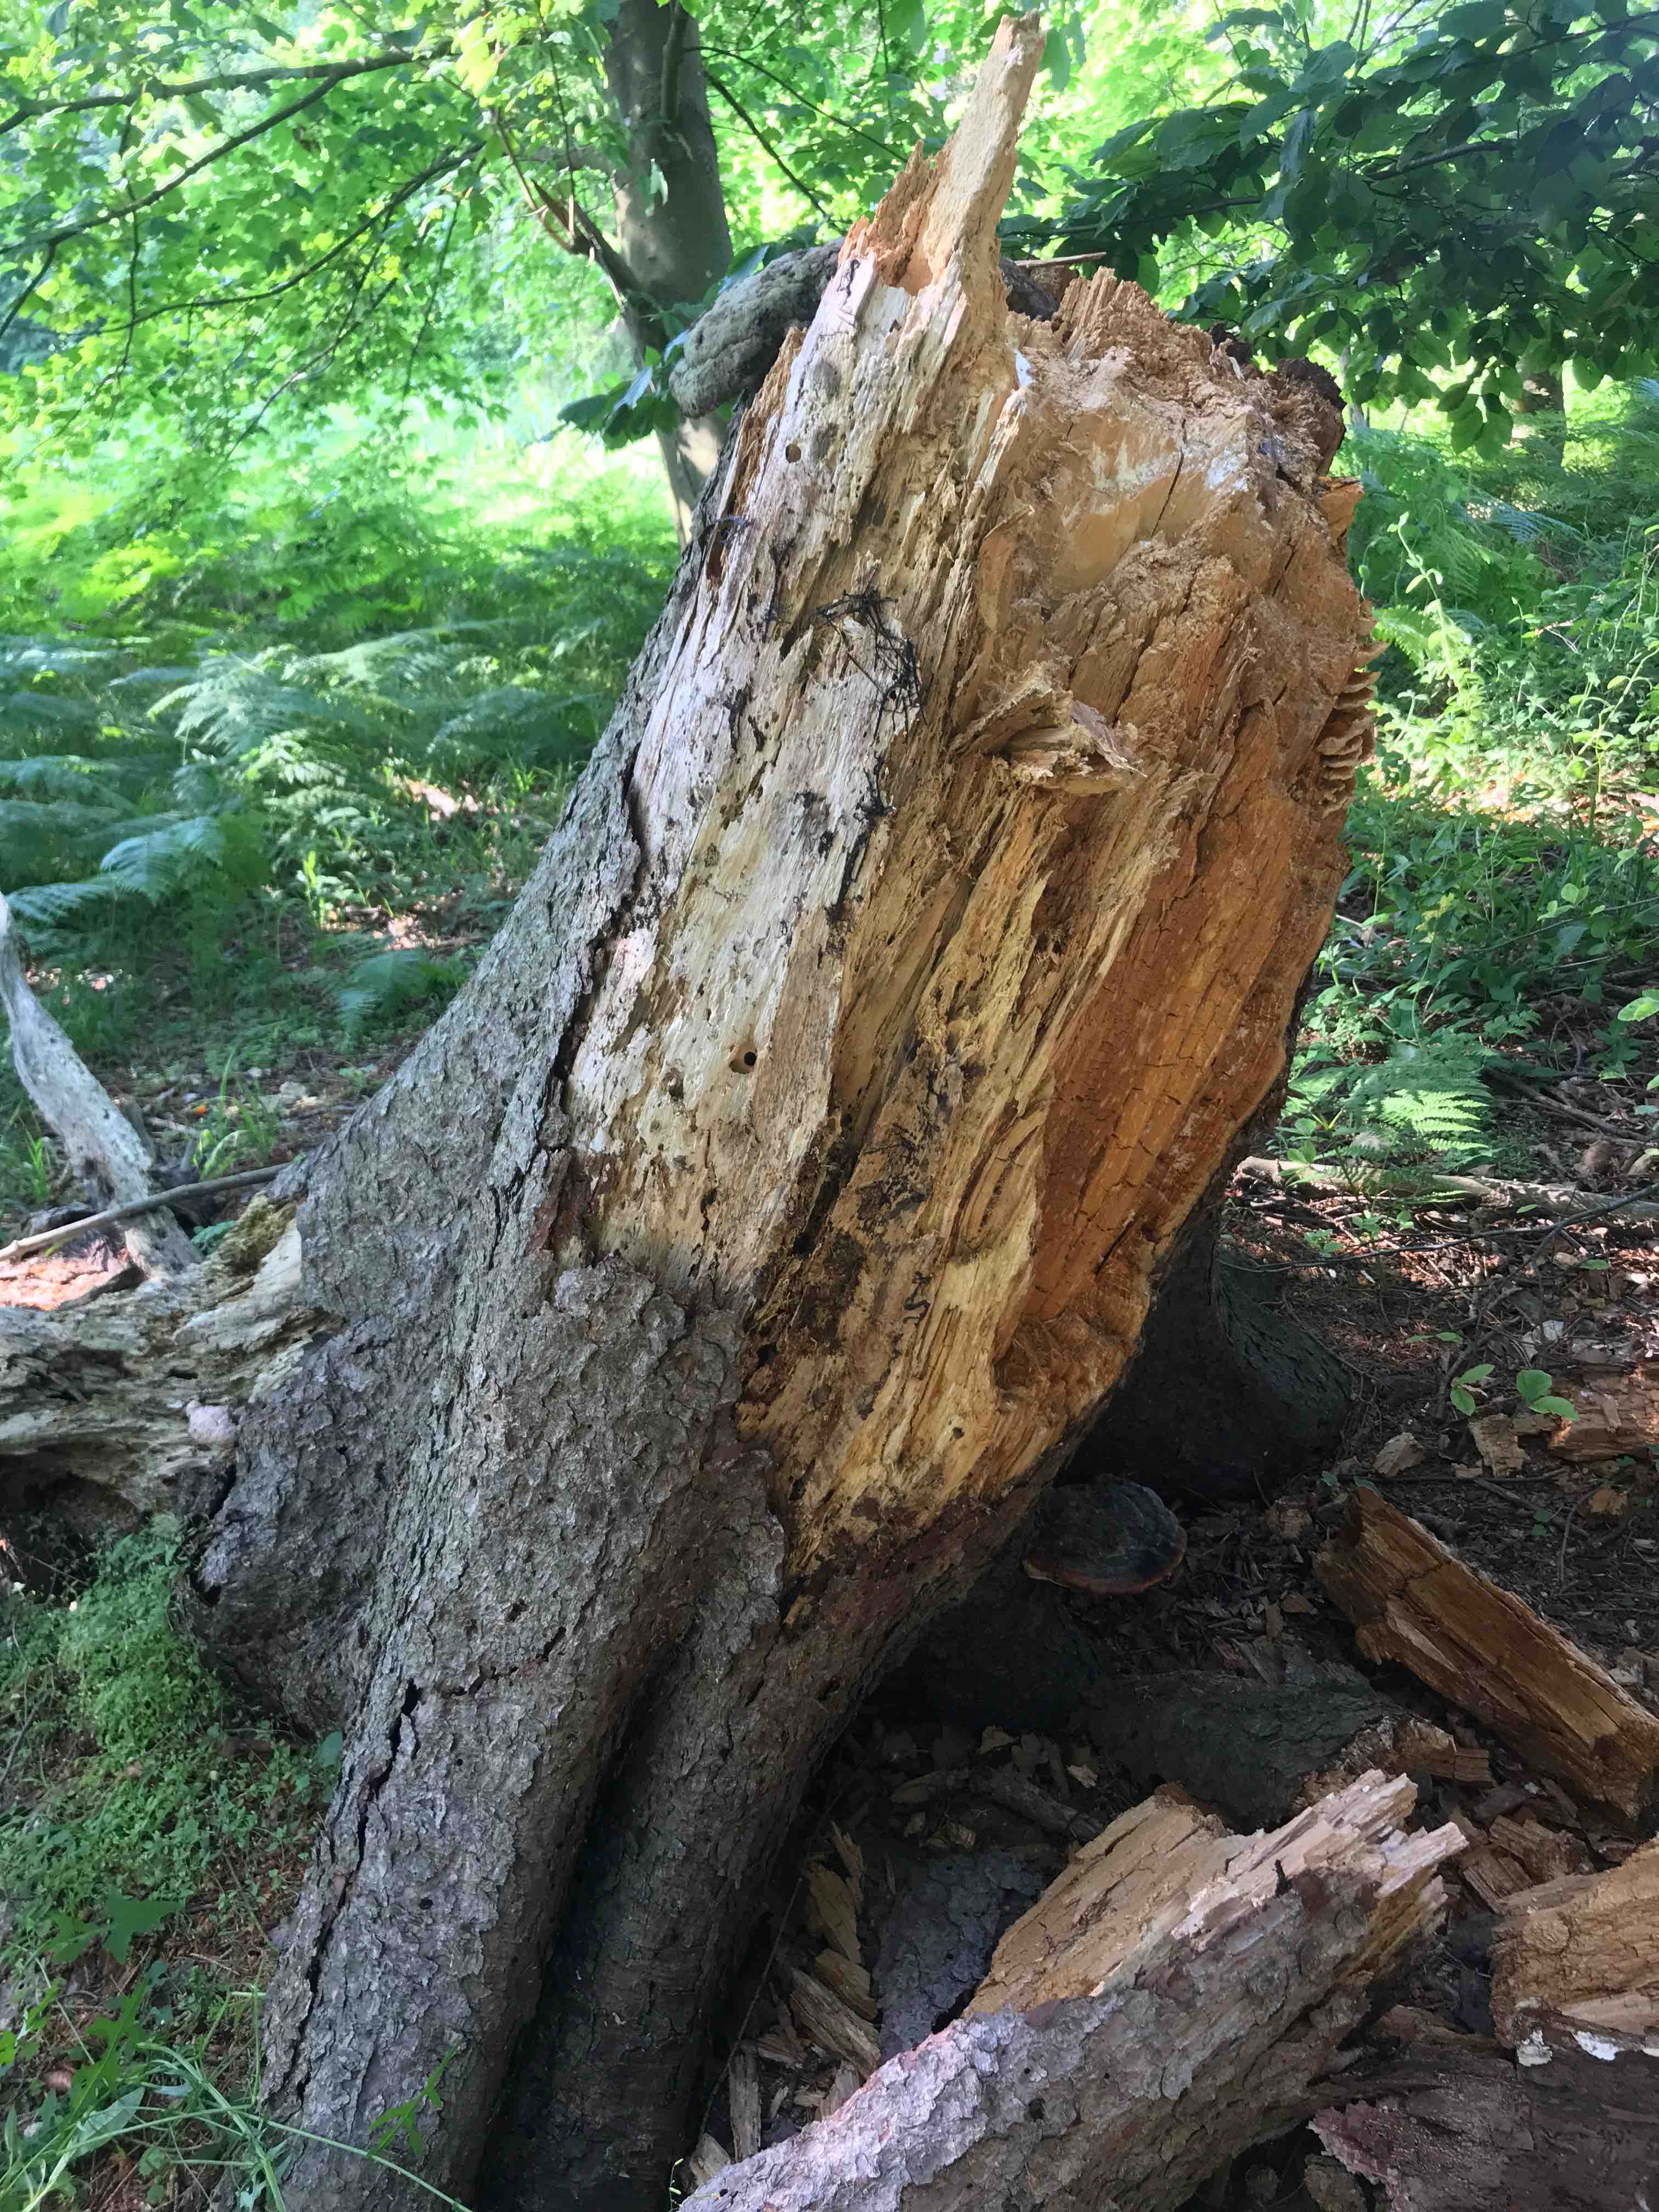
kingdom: Fungi
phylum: Basidiomycota
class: Agaricomycetes
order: Polyporales
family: Pycnoporellaceae
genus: Pycnoporellus
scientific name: Pycnoporellus fulgens
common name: flammeporesvamp
